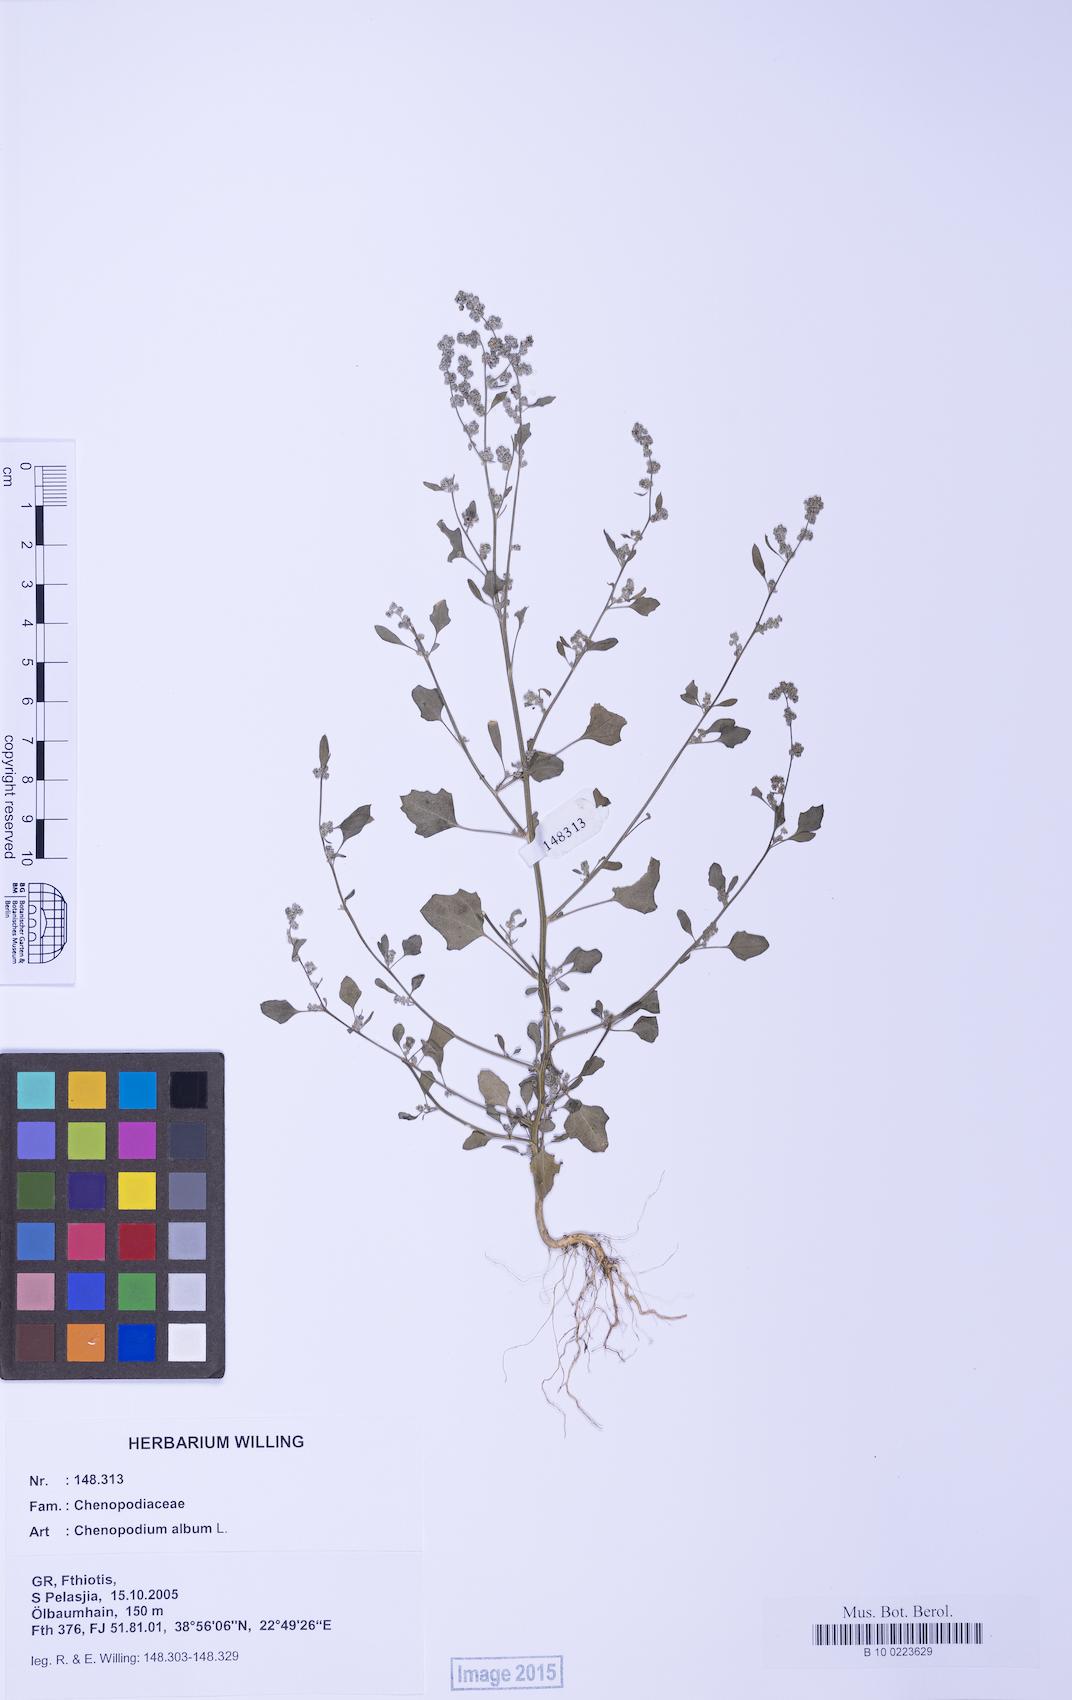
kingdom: Plantae
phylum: Tracheophyta
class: Magnoliopsida
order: Caryophyllales
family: Amaranthaceae
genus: Chenopodium
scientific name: Chenopodium opulifolium
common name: Grey goosefoot
